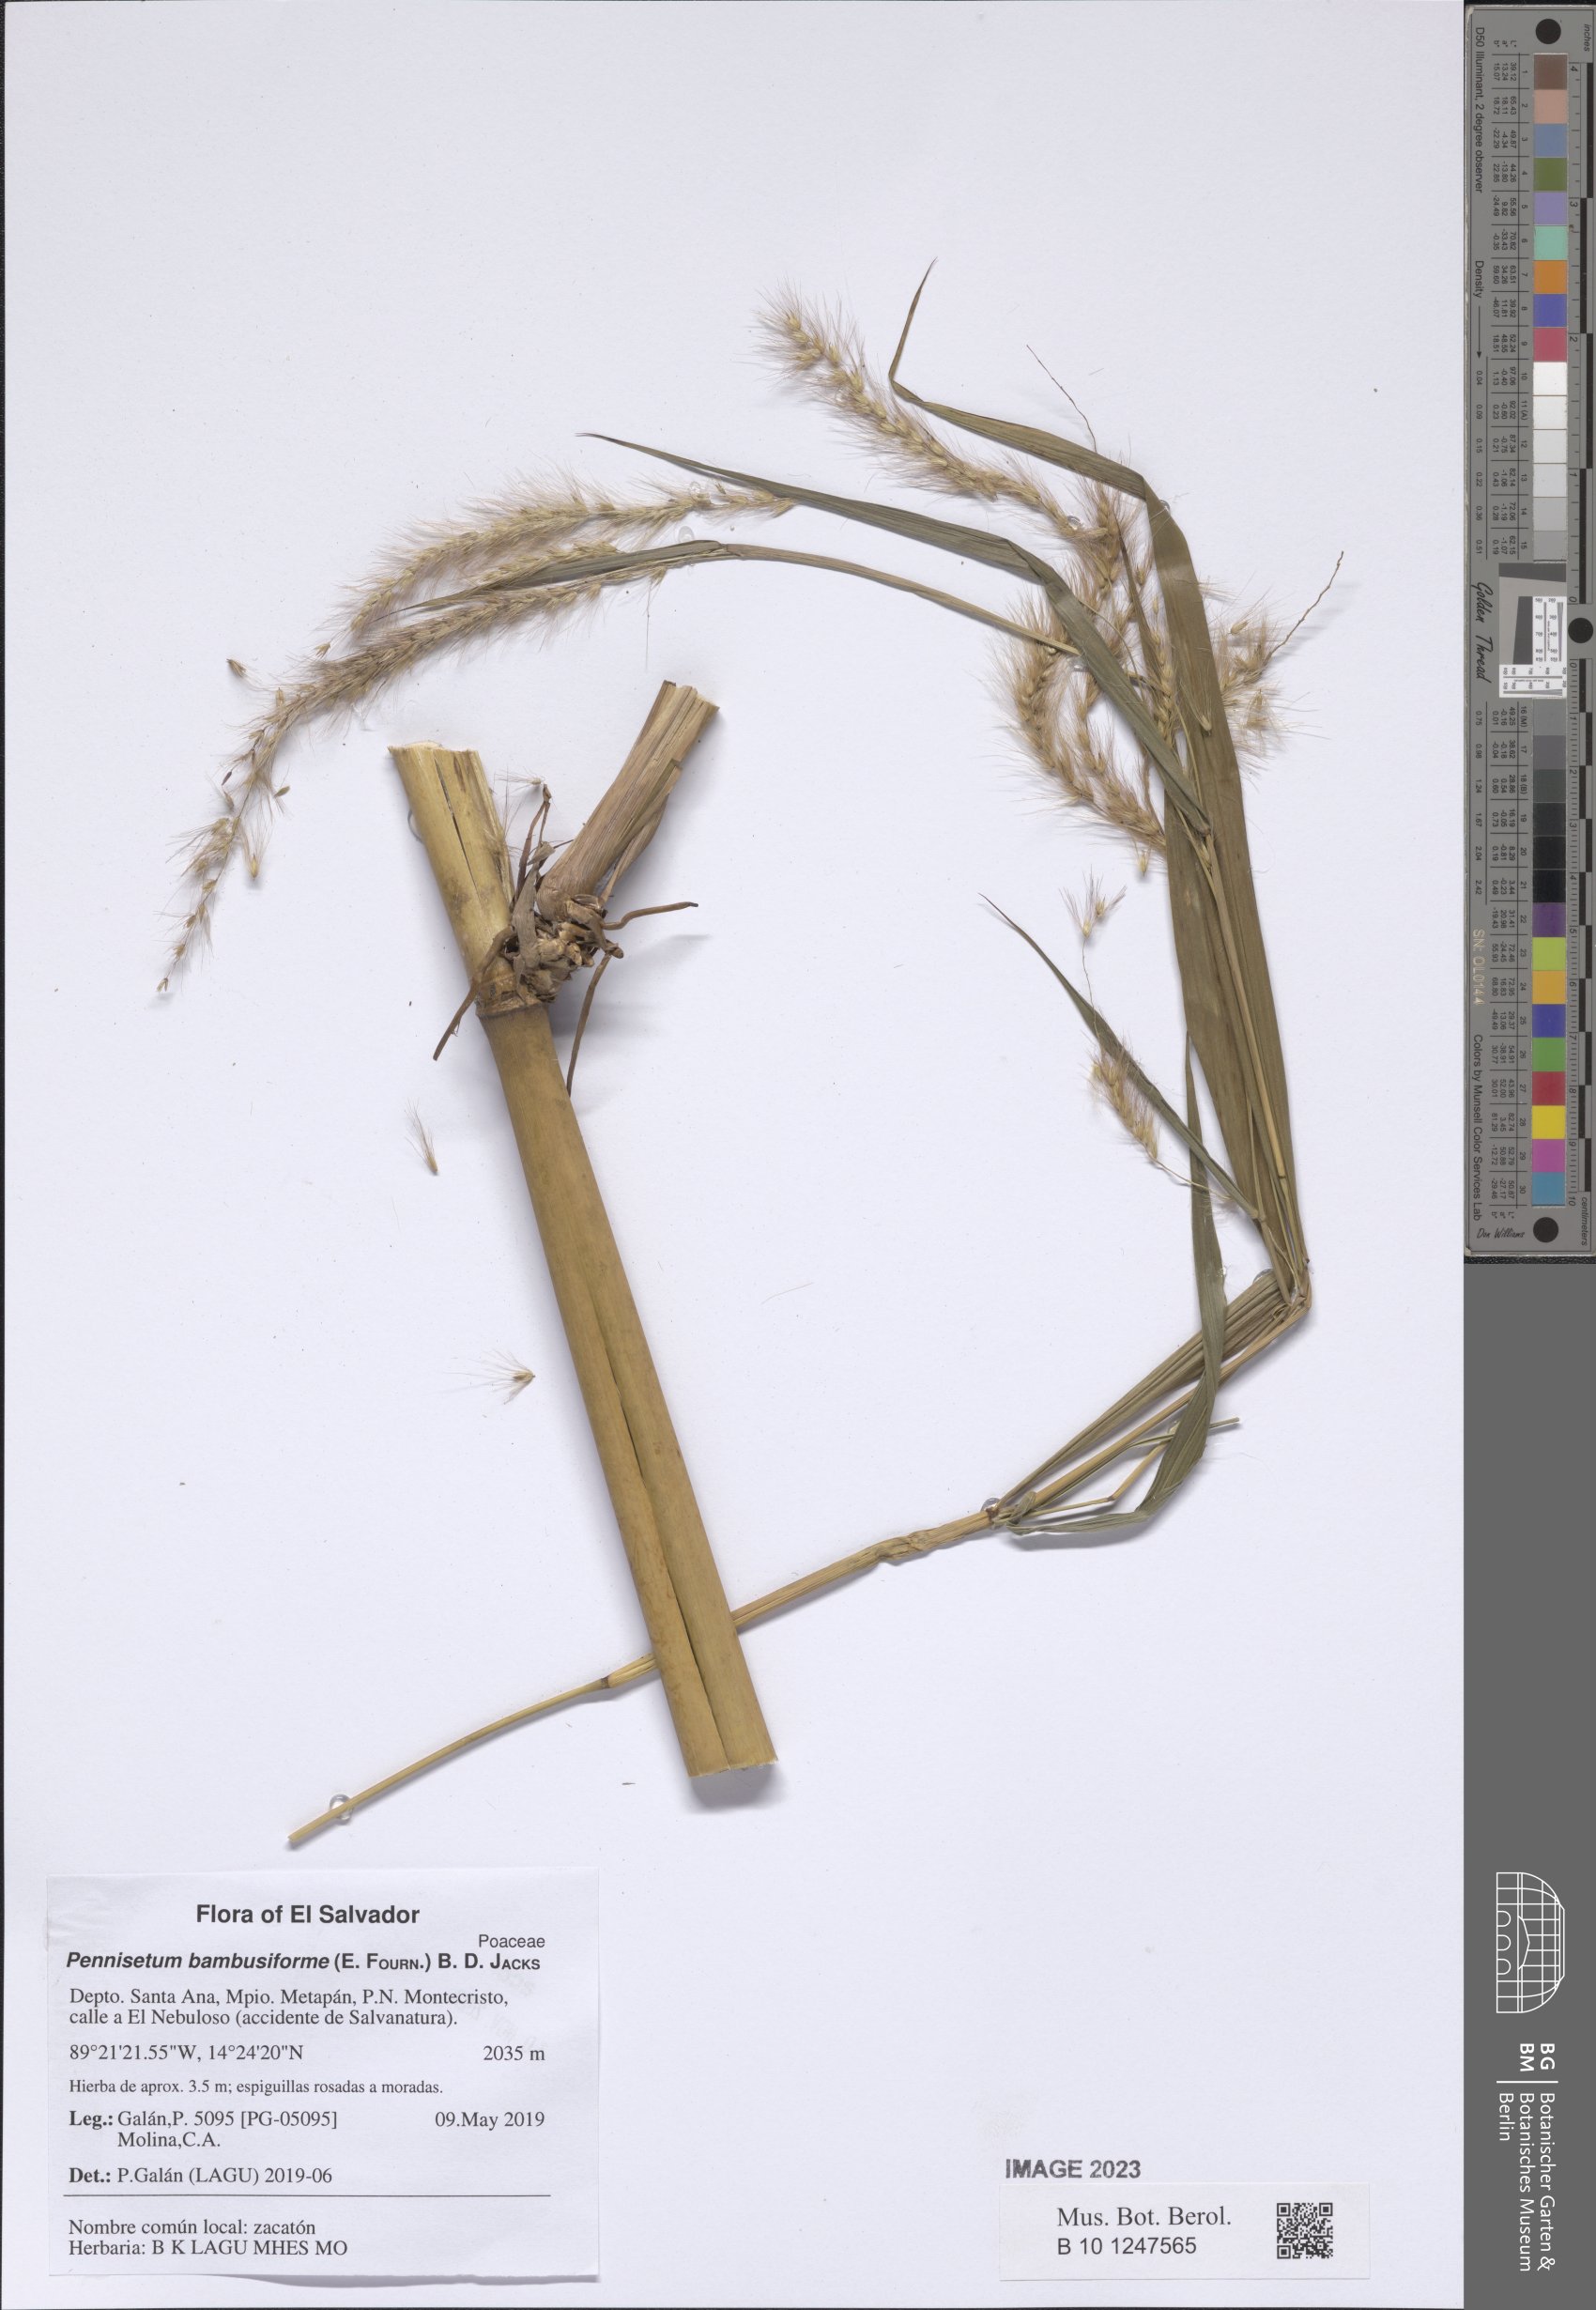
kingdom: Plantae
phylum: Tracheophyta
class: Liliopsida
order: Poales
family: Poaceae
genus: Cenchrus
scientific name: Cenchrus preslii
